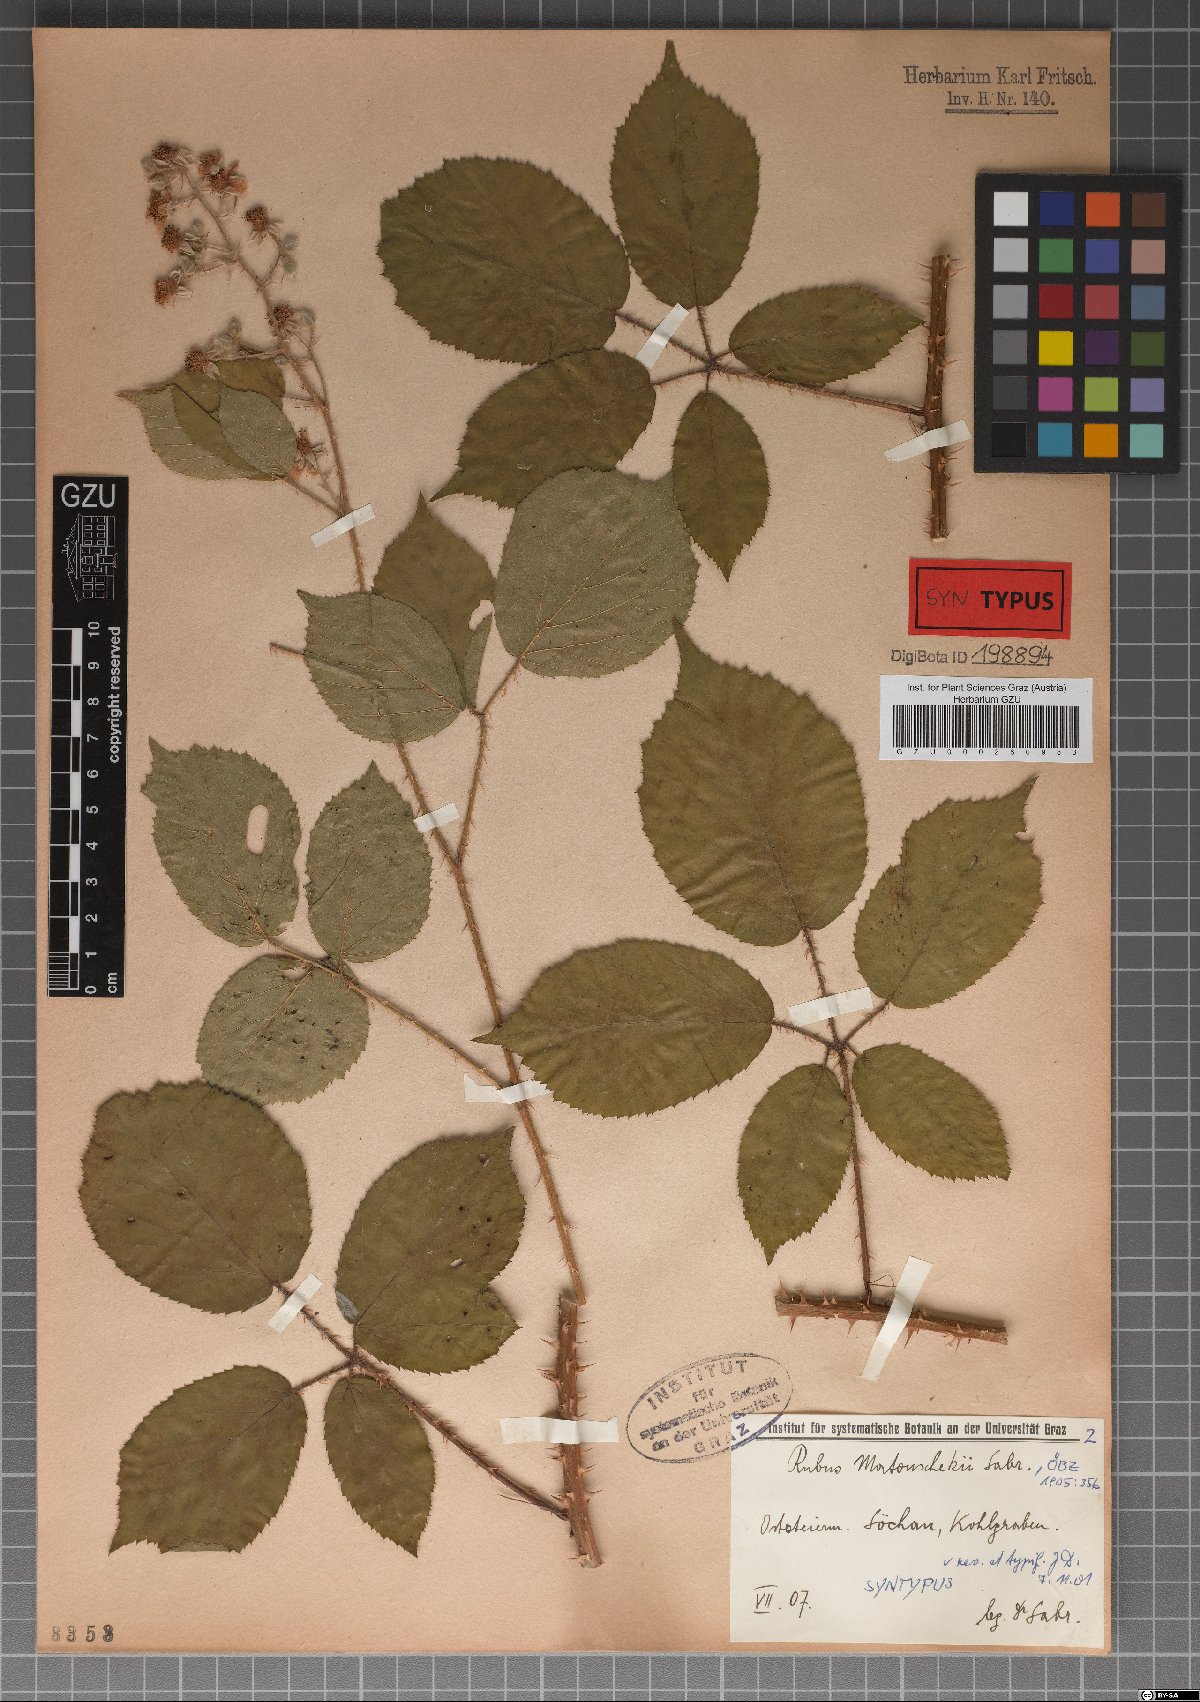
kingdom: Plantae
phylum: Tracheophyta
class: Magnoliopsida
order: Rosales
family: Rosaceae
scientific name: Rosaceae
